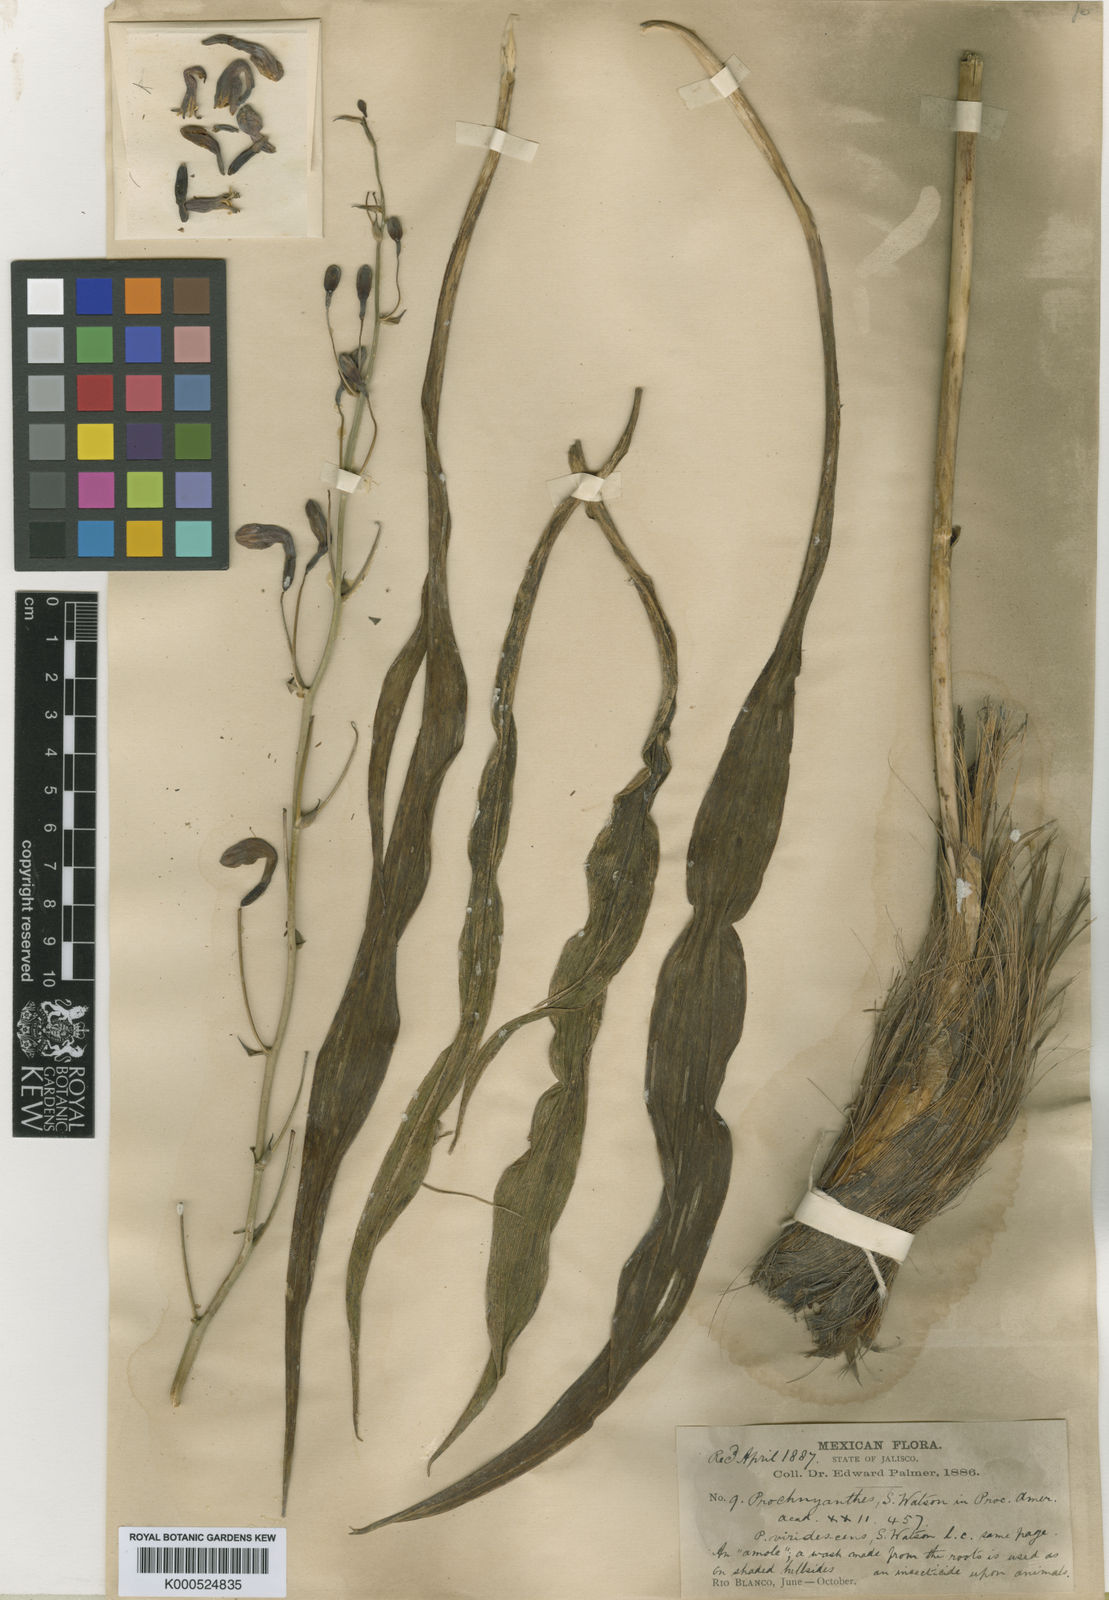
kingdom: Plantae
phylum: Tracheophyta
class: Liliopsida
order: Asparagales
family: Asparagaceae
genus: Agave
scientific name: Agave bulliana
